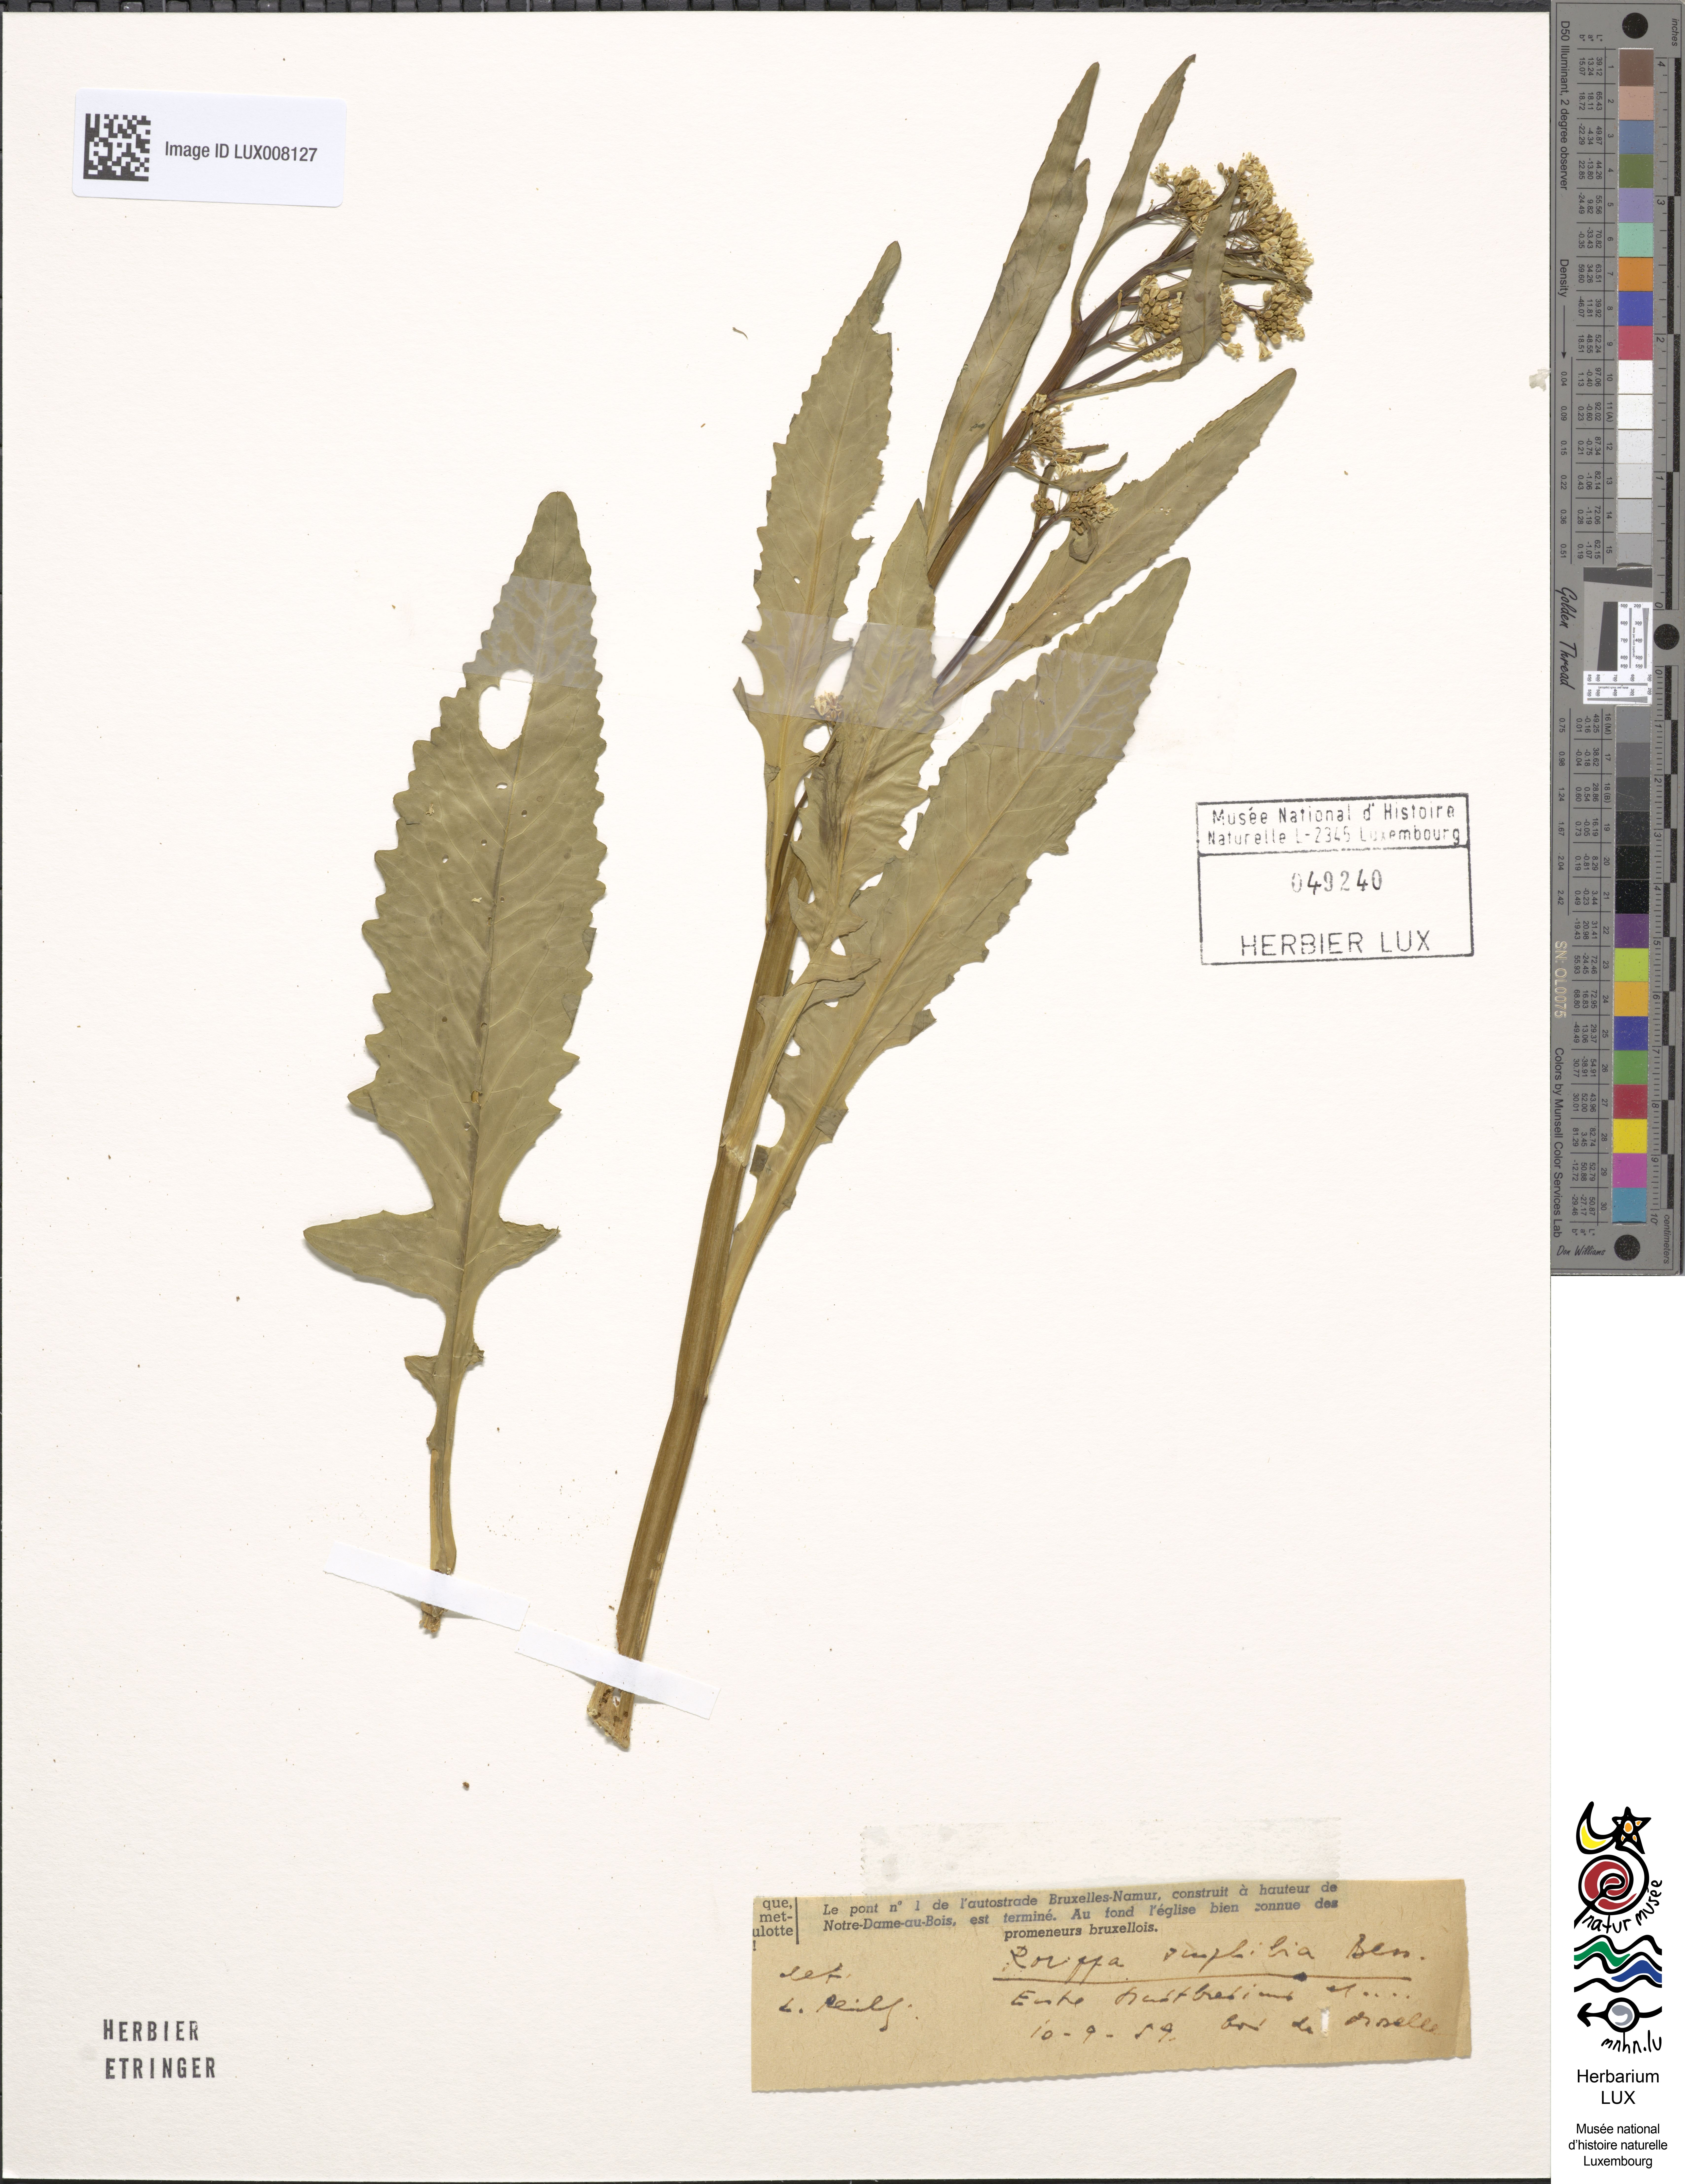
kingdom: Plantae
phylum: Tracheophyta
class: Magnoliopsida
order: Brassicales
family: Brassicaceae
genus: Rorippa
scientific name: Rorippa amphibia
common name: Great yellow-cress
